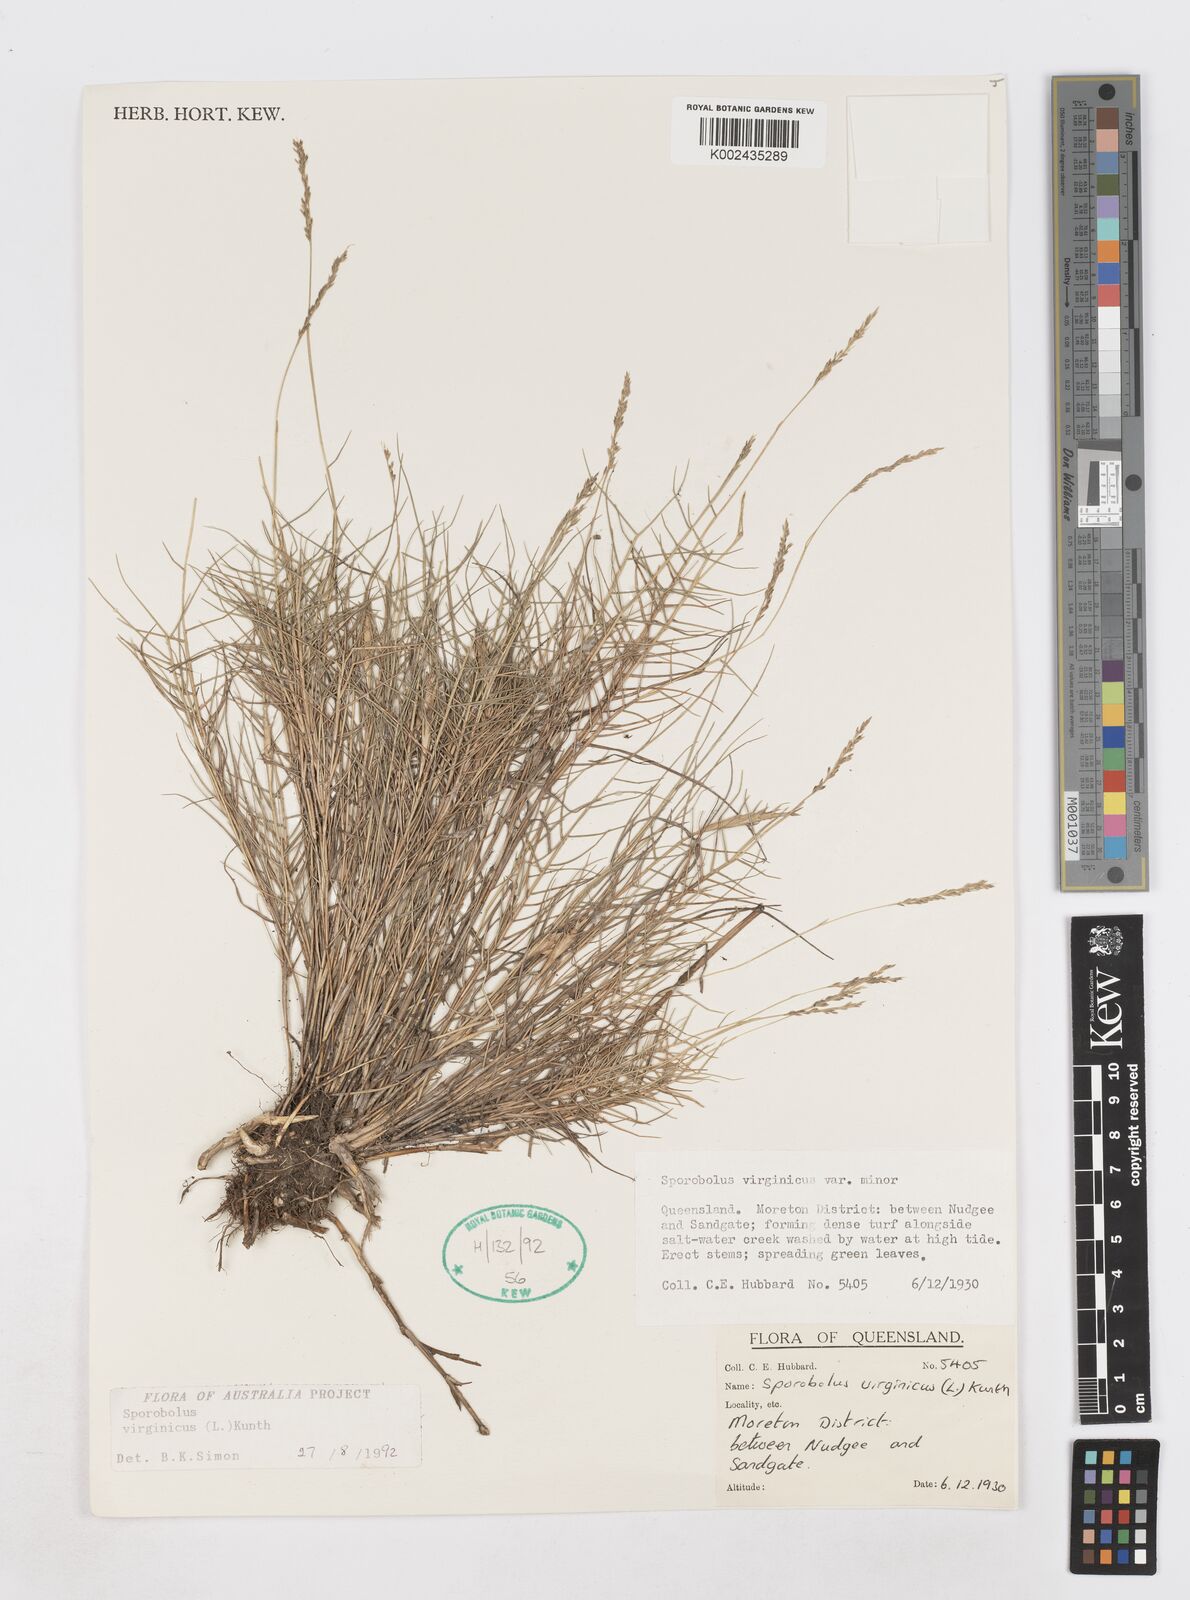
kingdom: Plantae
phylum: Tracheophyta
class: Liliopsida
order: Poales
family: Poaceae
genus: Sporobolus
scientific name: Sporobolus virginicus
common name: Beach dropseed
